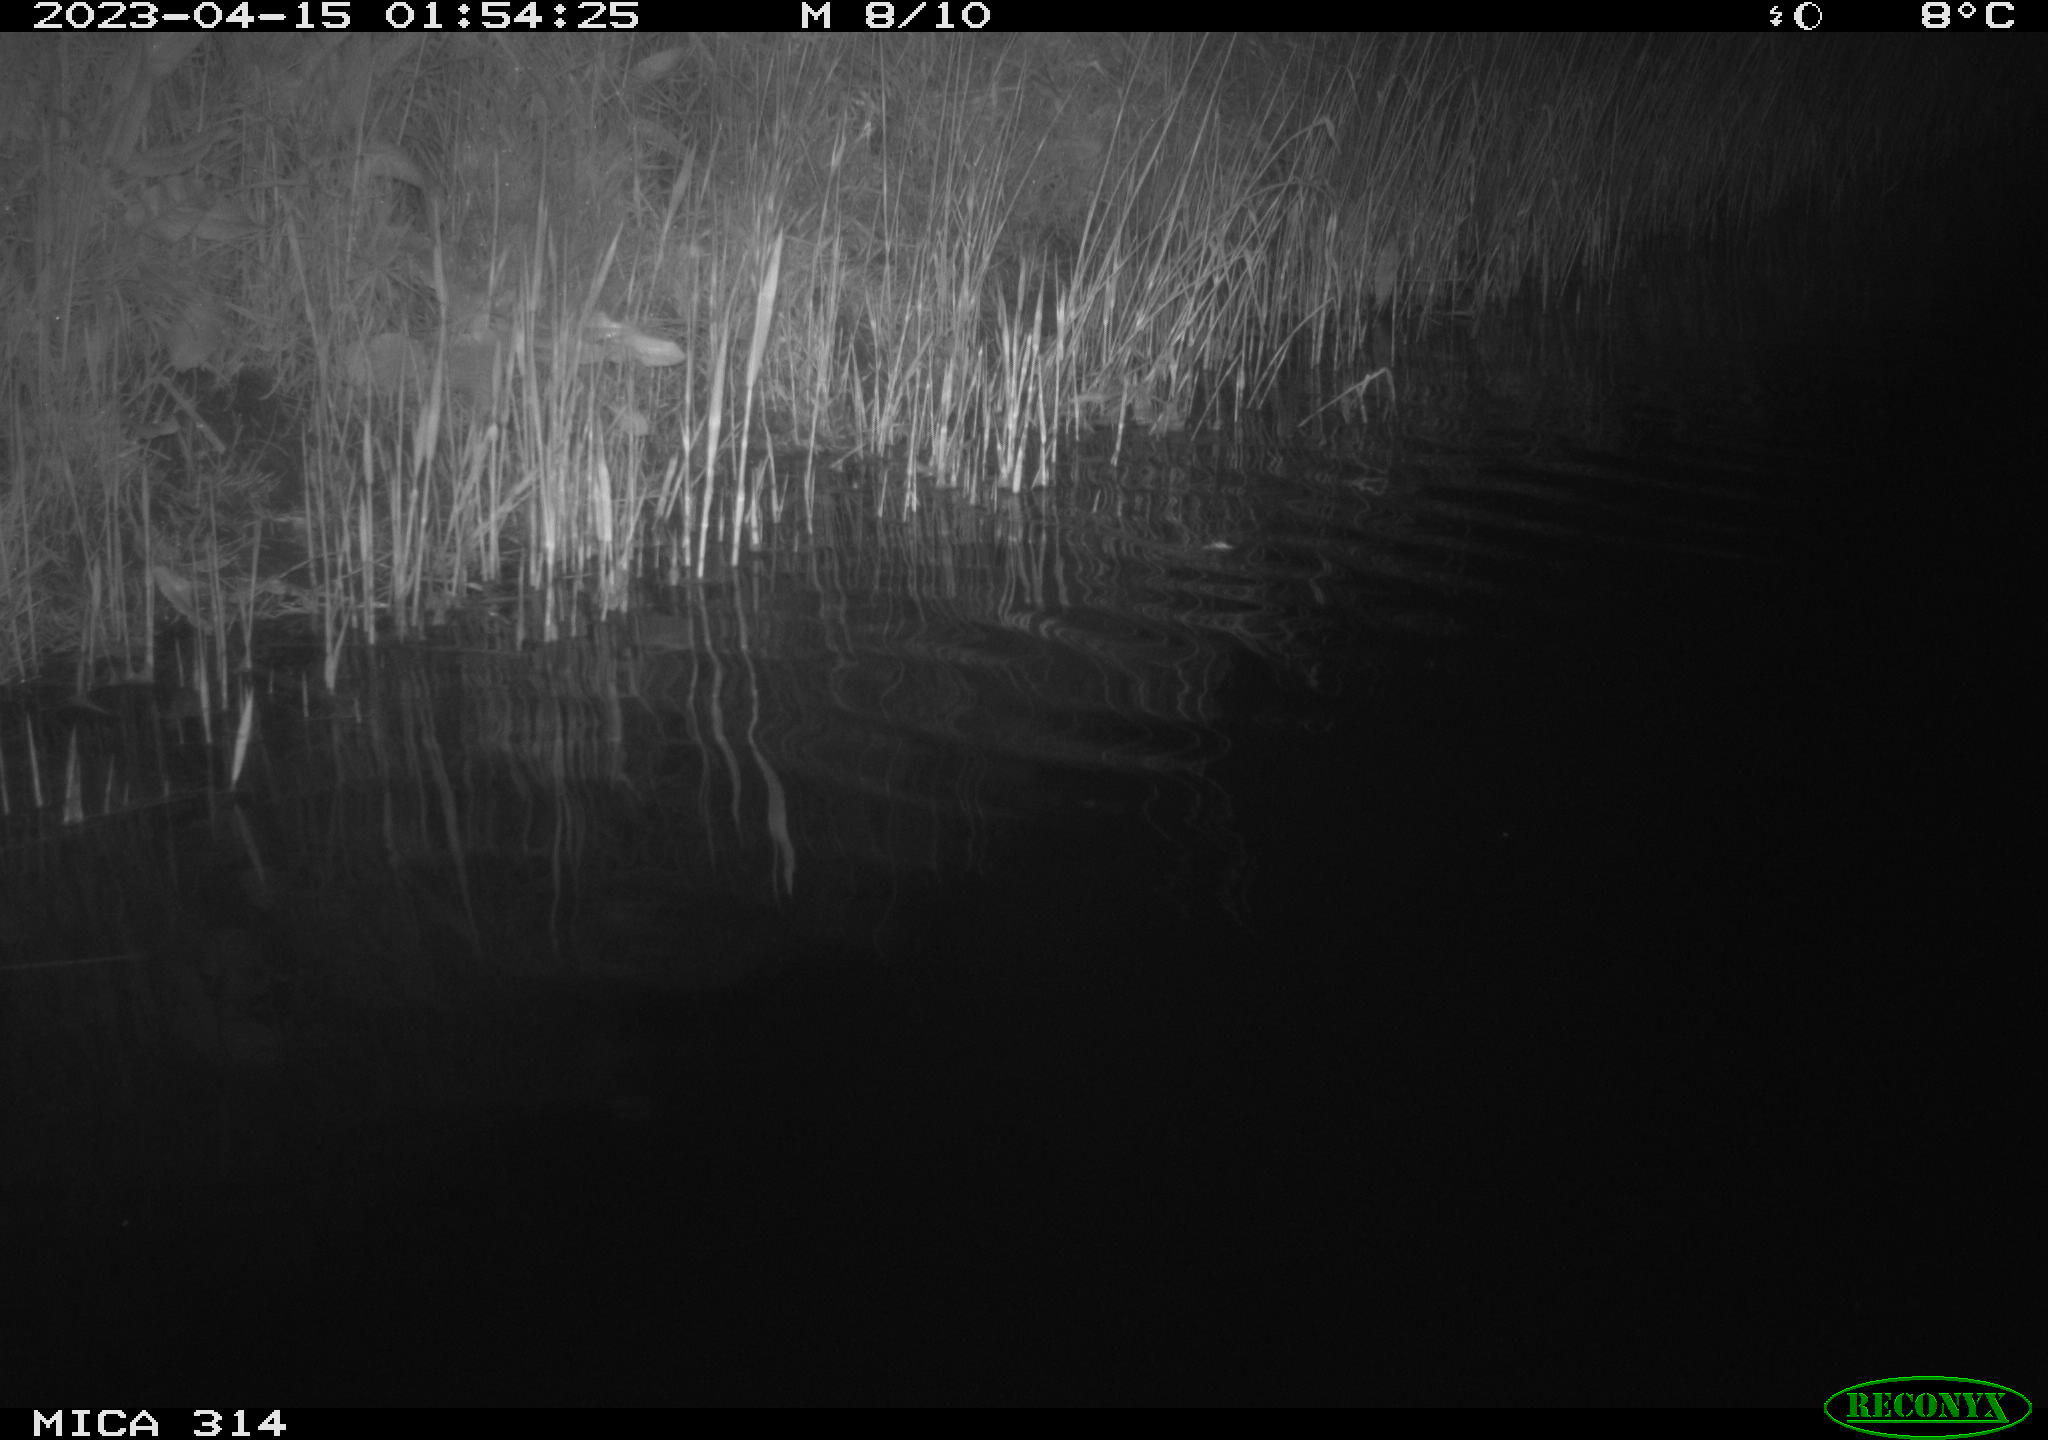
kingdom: Animalia
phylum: Chordata
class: Aves
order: Anseriformes
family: Anatidae
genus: Anas
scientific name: Anas
